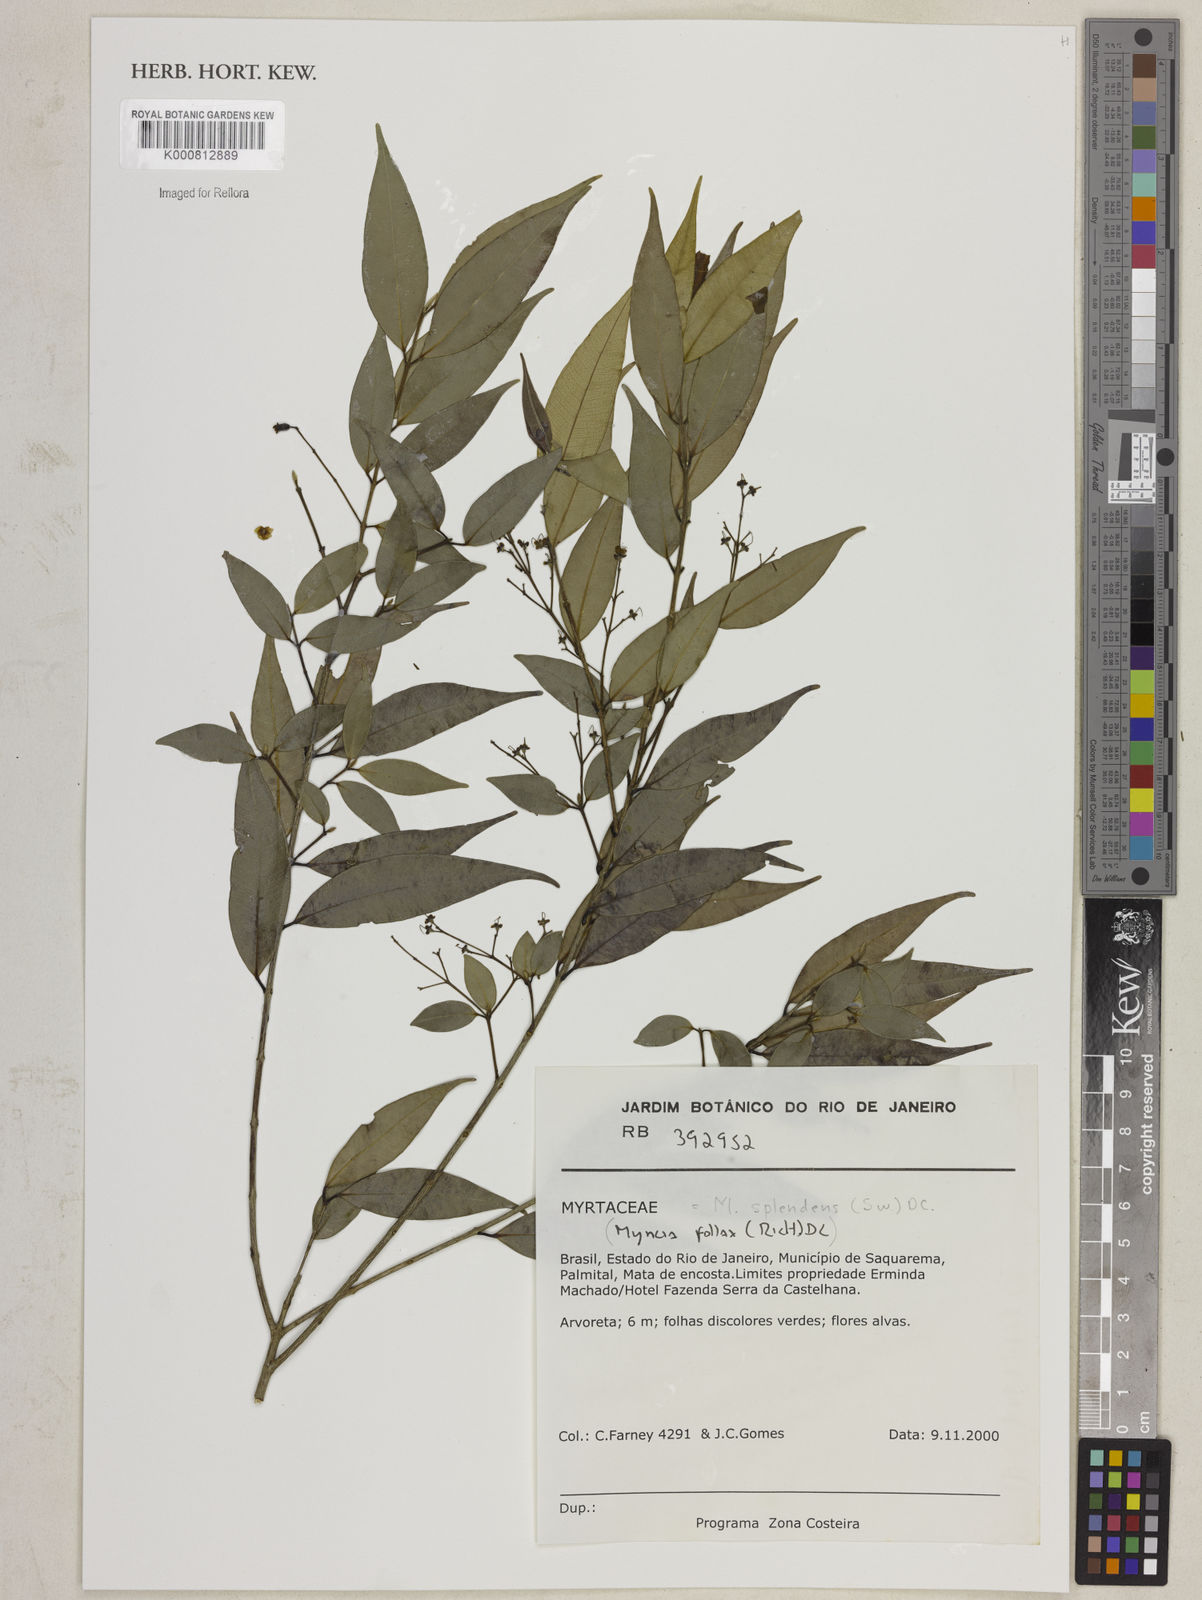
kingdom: Plantae
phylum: Tracheophyta
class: Magnoliopsida
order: Myrtales
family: Myrtaceae
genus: Myrcia
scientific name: Myrcia splendens
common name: Surinam cherry
